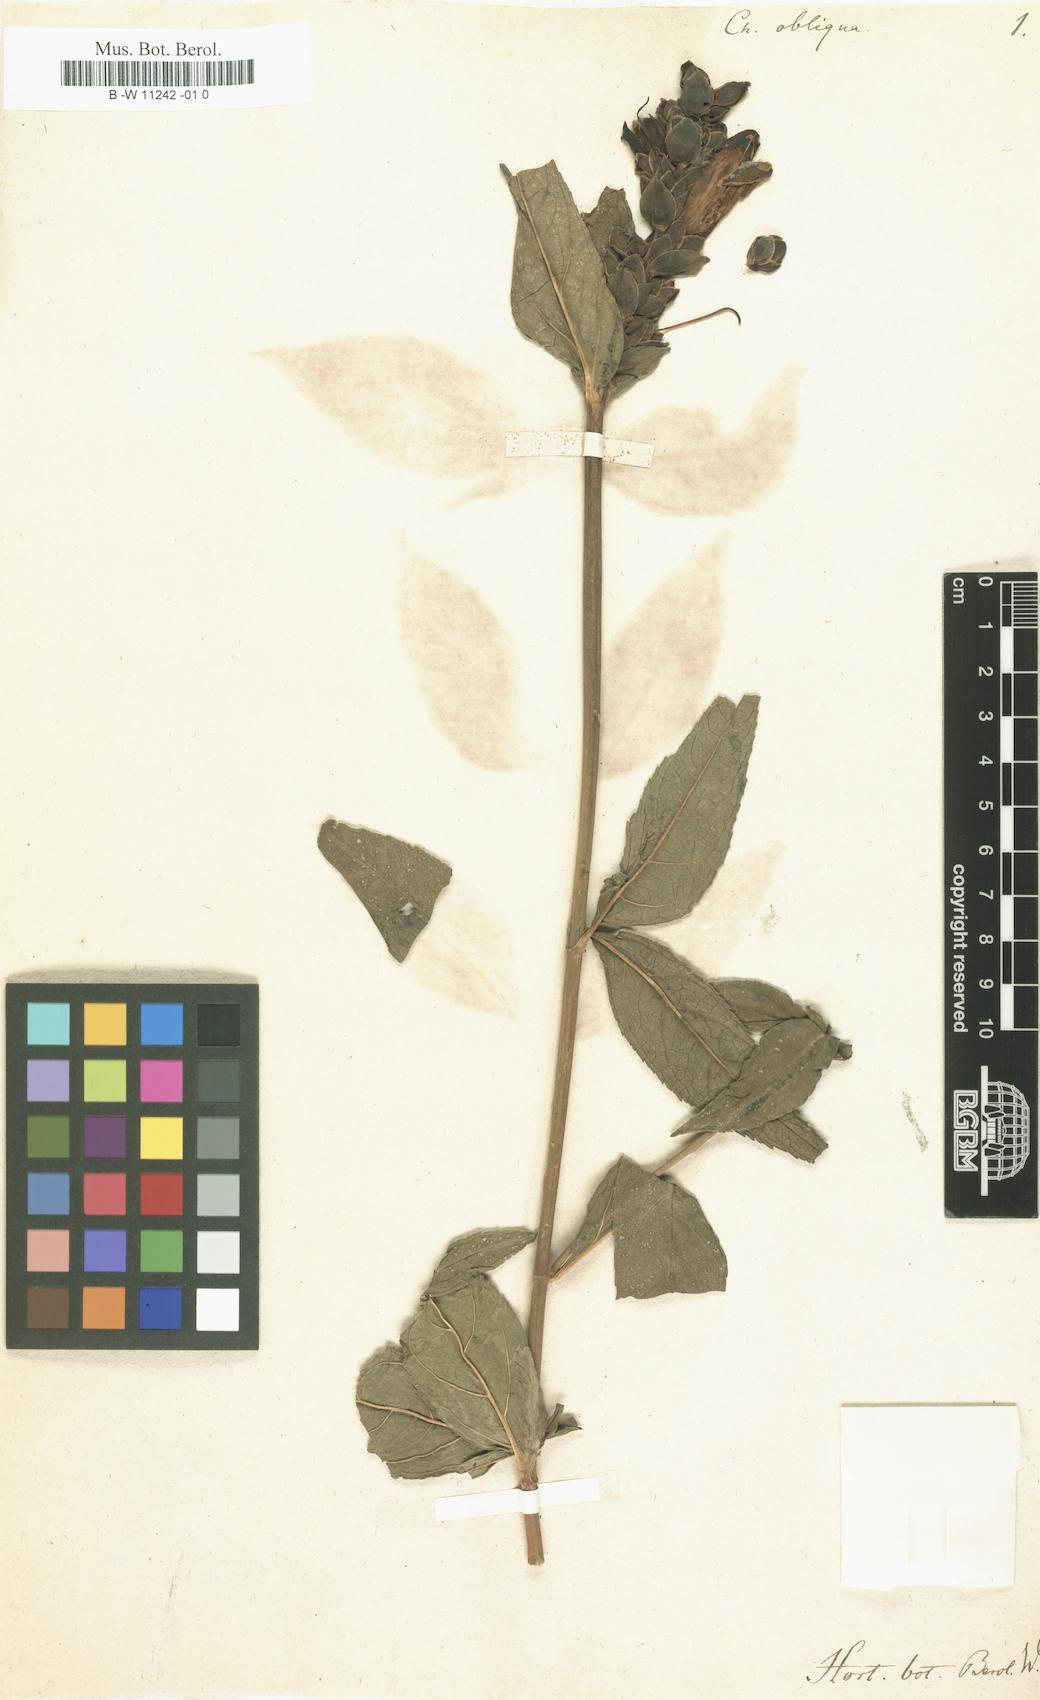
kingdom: Plantae
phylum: Tracheophyta
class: Magnoliopsida
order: Lamiales
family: Plantaginaceae
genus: Chelone
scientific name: Chelone obliqua
